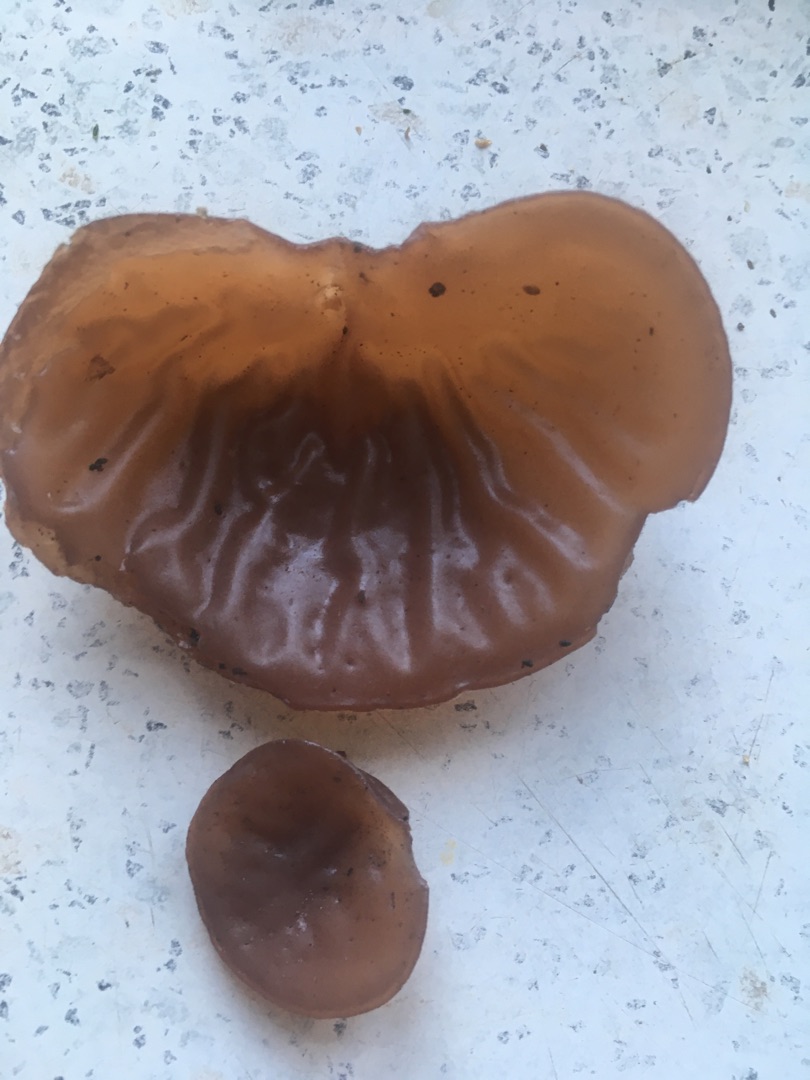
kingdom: Fungi
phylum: Basidiomycota
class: Agaricomycetes
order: Auriculariales
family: Auriculariaceae
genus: Auricularia
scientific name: Auricularia auricula-judae
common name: Almindelig judasøre
